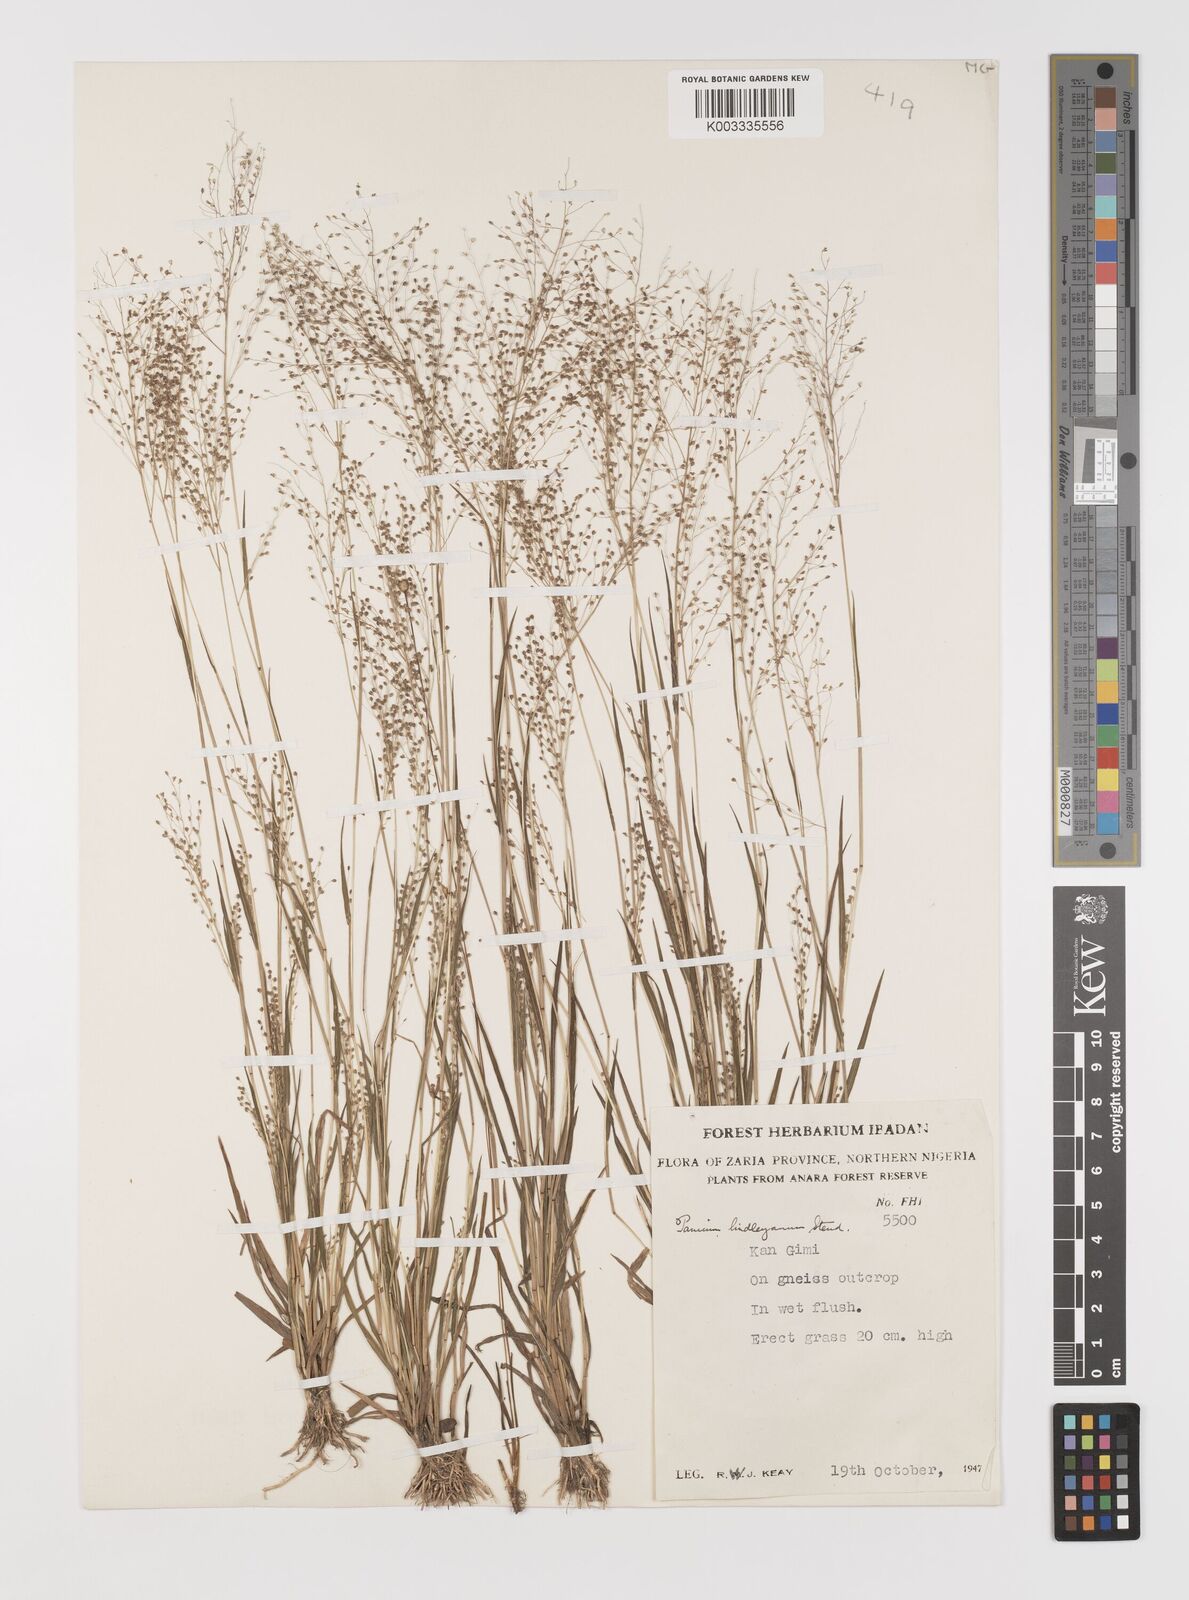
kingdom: Plantae
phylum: Tracheophyta
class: Liliopsida
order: Poales
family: Poaceae
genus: Trichanthecium
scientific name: Trichanthecium tenellum
